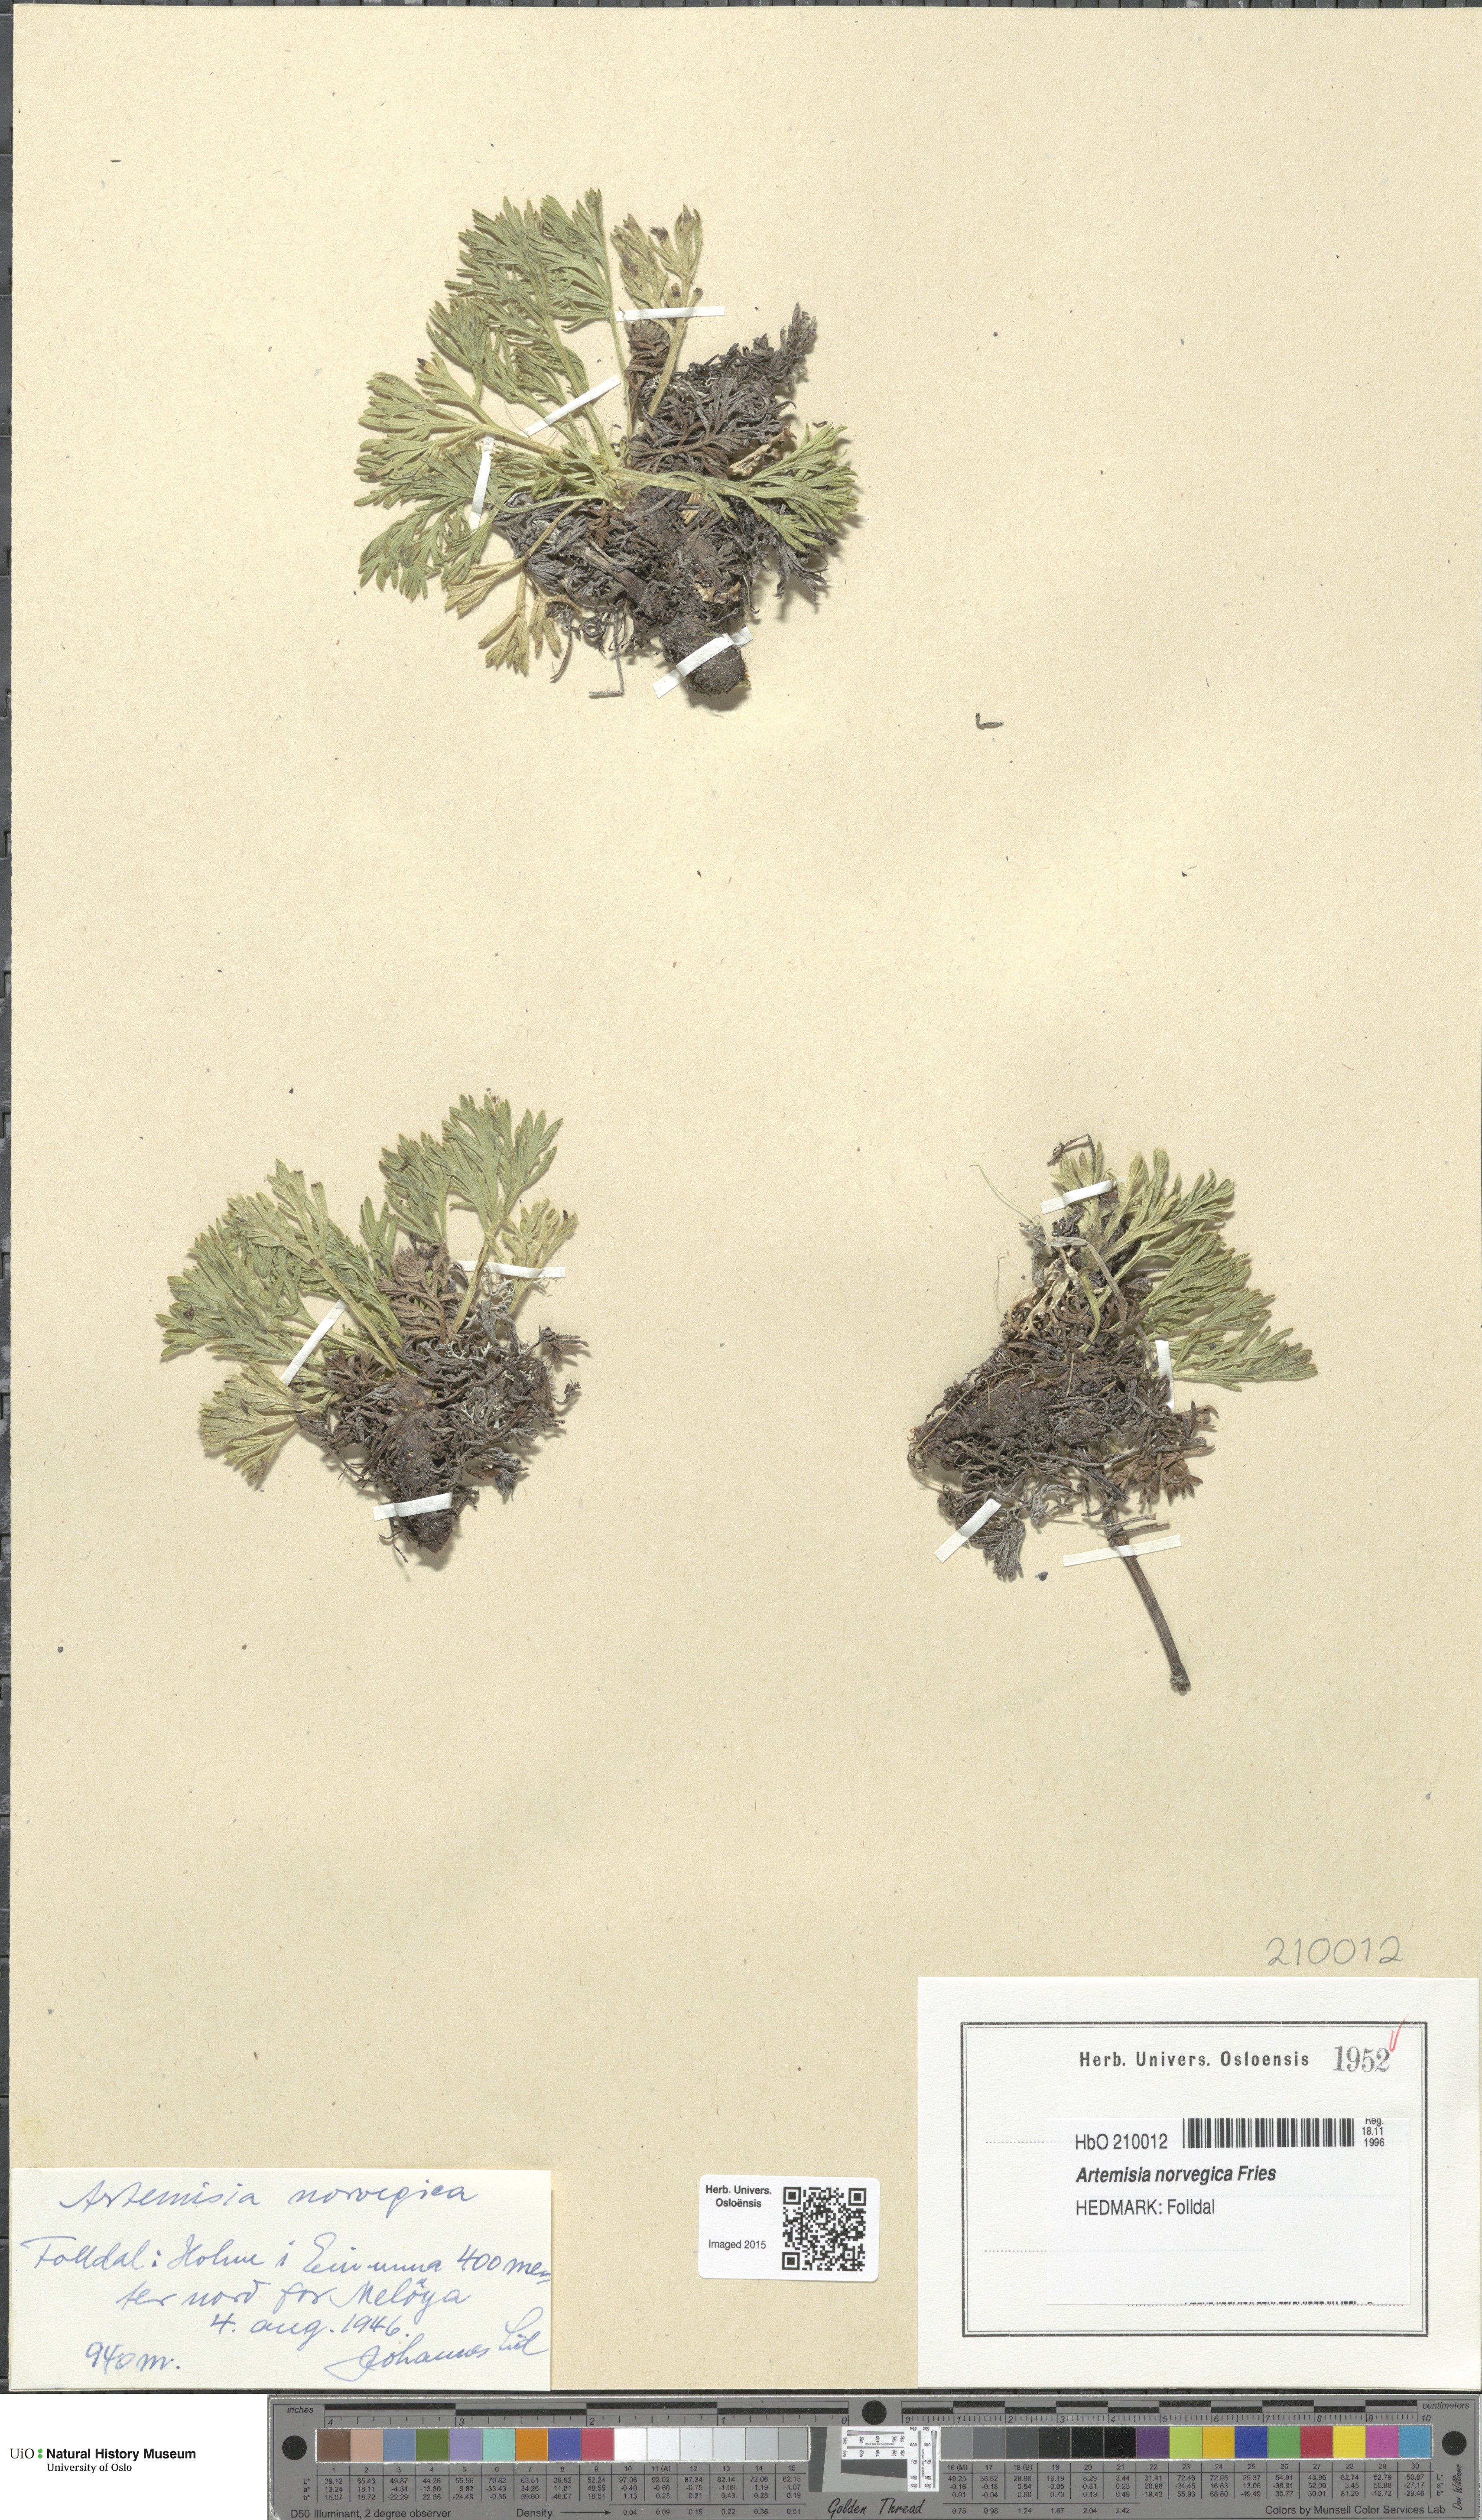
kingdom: Plantae
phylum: Tracheophyta
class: Magnoliopsida
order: Asterales
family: Asteraceae
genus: Artemisia
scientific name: Artemisia norvegica
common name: Norwegian mugwort
